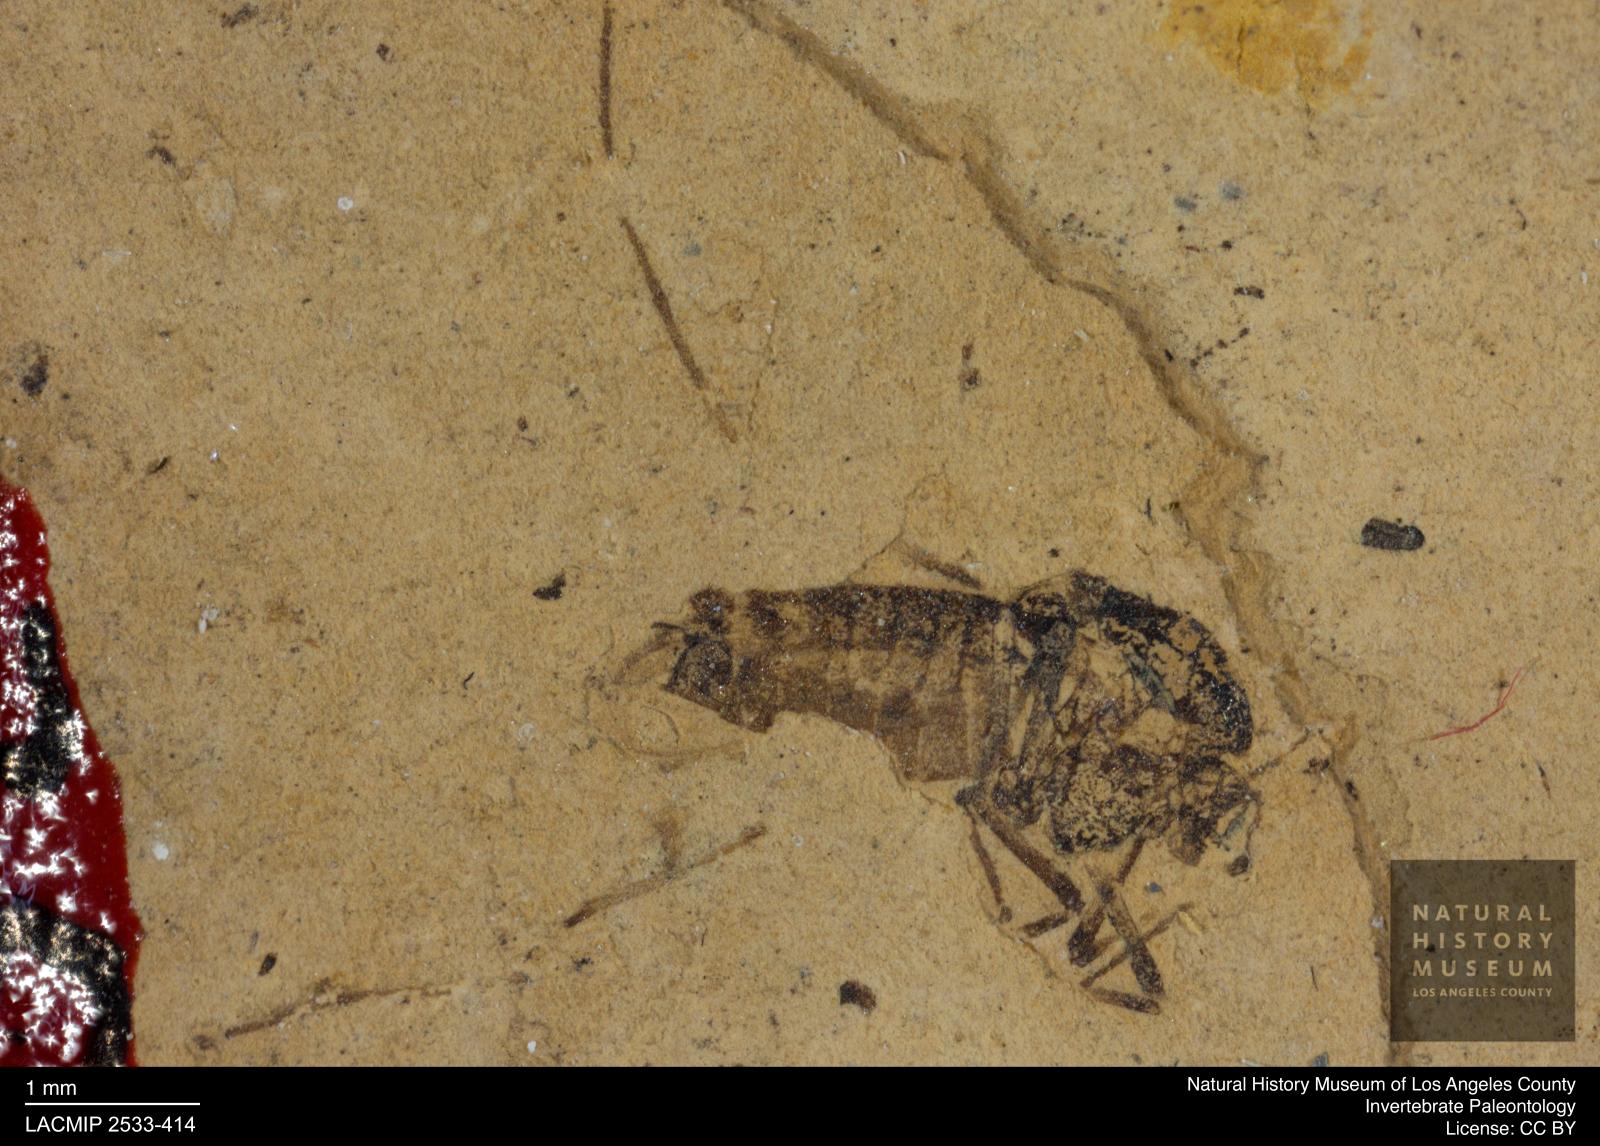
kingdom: Animalia
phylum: Arthropoda
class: Insecta
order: Diptera
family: Chironomidae
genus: Tanypus
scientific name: Tanypus fuscus
